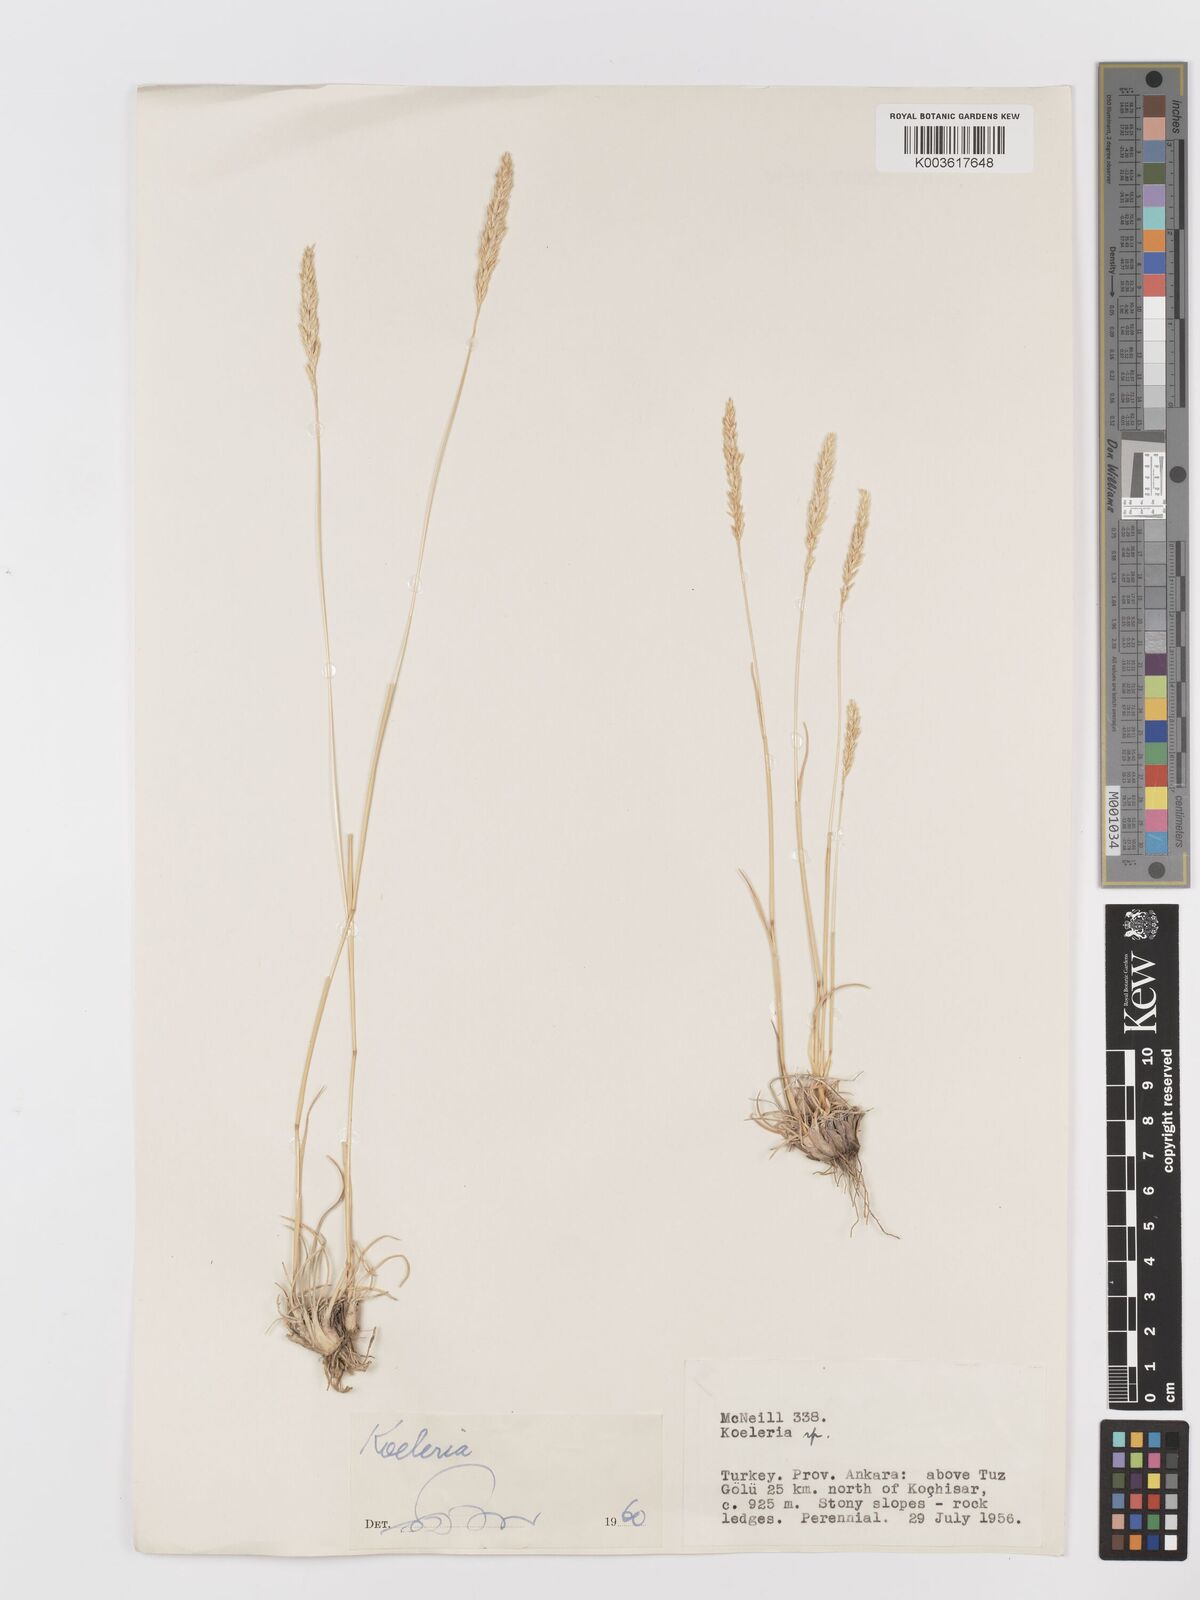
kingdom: Plantae
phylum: Tracheophyta
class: Liliopsida
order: Poales
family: Poaceae
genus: Koeleria
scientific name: Koeleria
